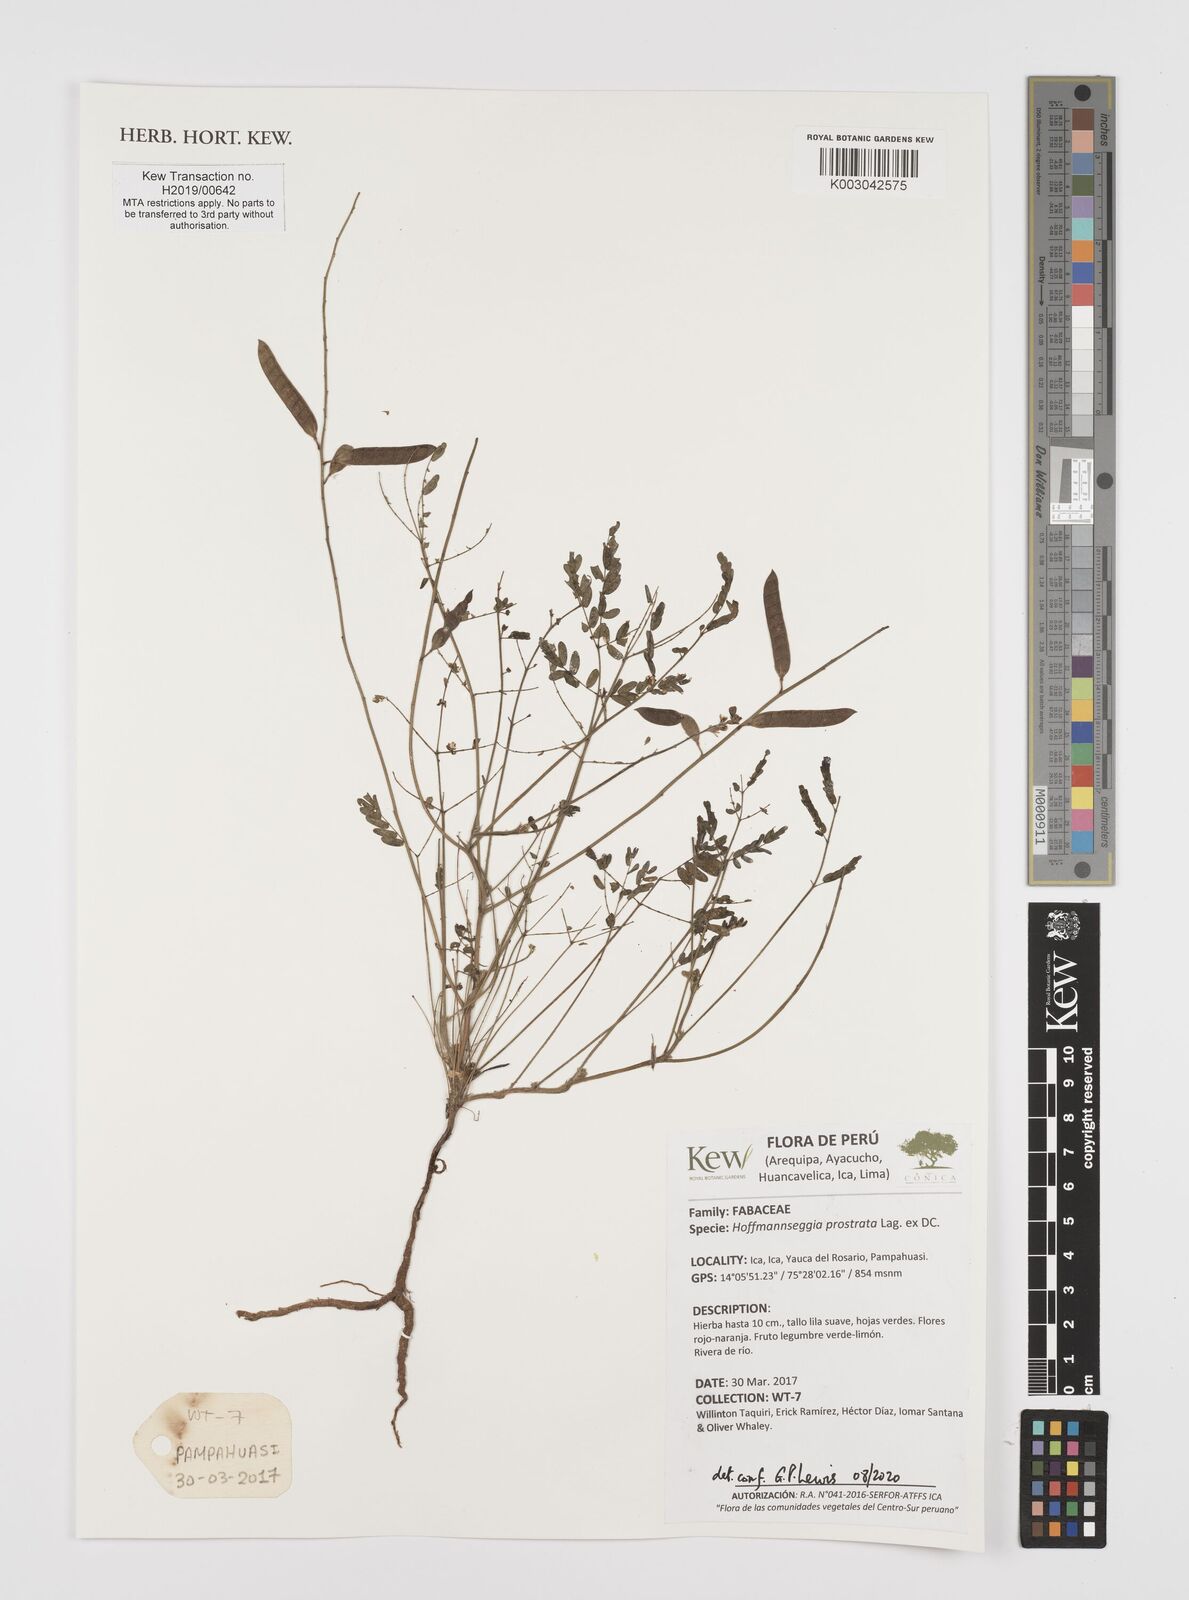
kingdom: Plantae
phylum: Tracheophyta
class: Magnoliopsida
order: Fabales
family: Fabaceae
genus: Hoffmannseggia
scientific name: Hoffmannseggia prostrata
